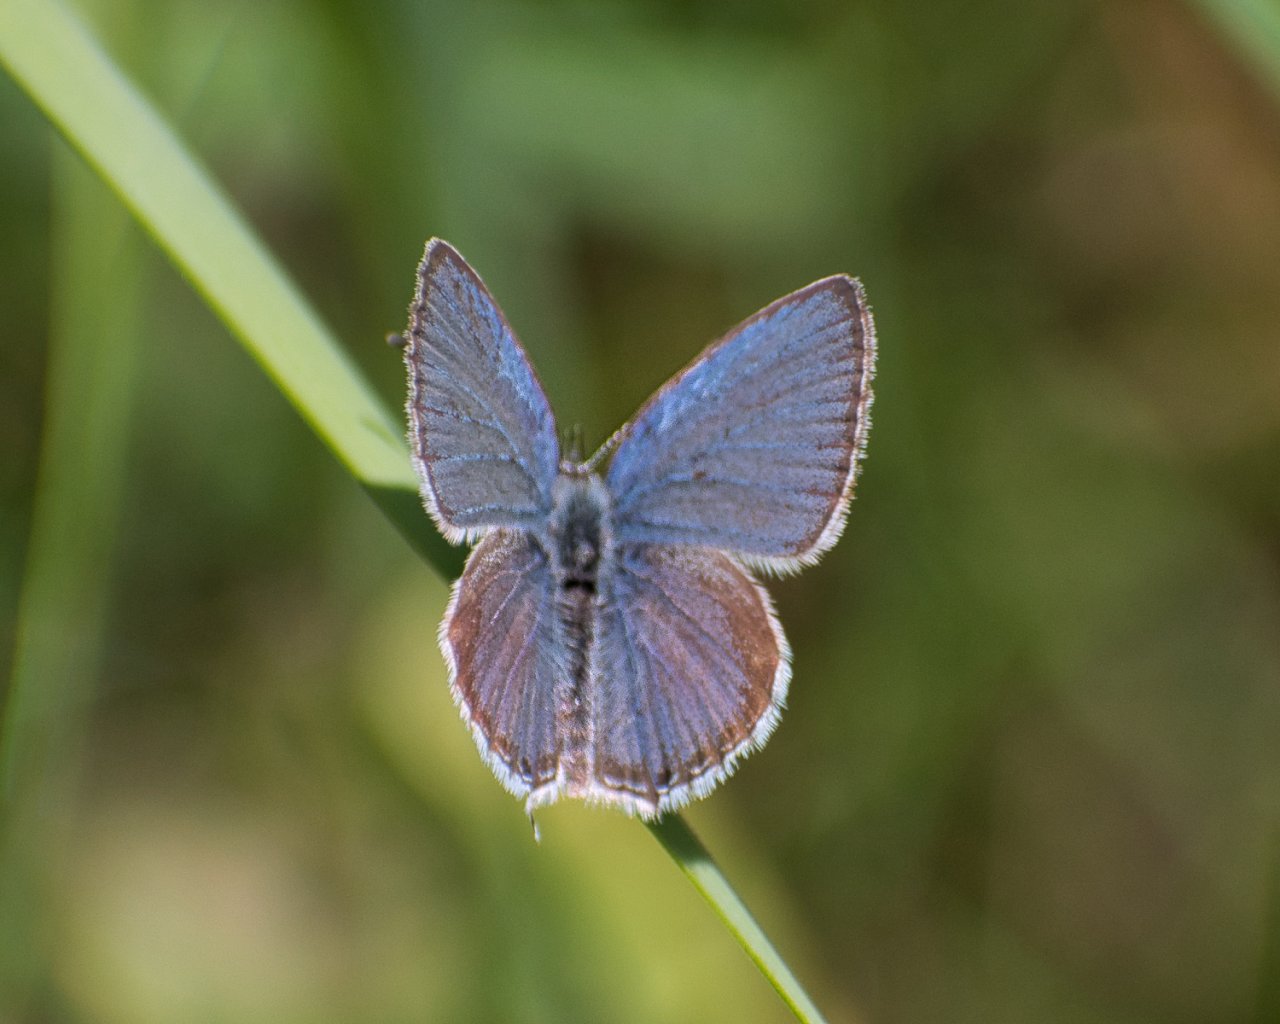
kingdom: Animalia
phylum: Arthropoda
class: Insecta
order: Lepidoptera
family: Lycaenidae
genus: Elkalyce
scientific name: Elkalyce amyntula
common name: Western Tailed-Blue
